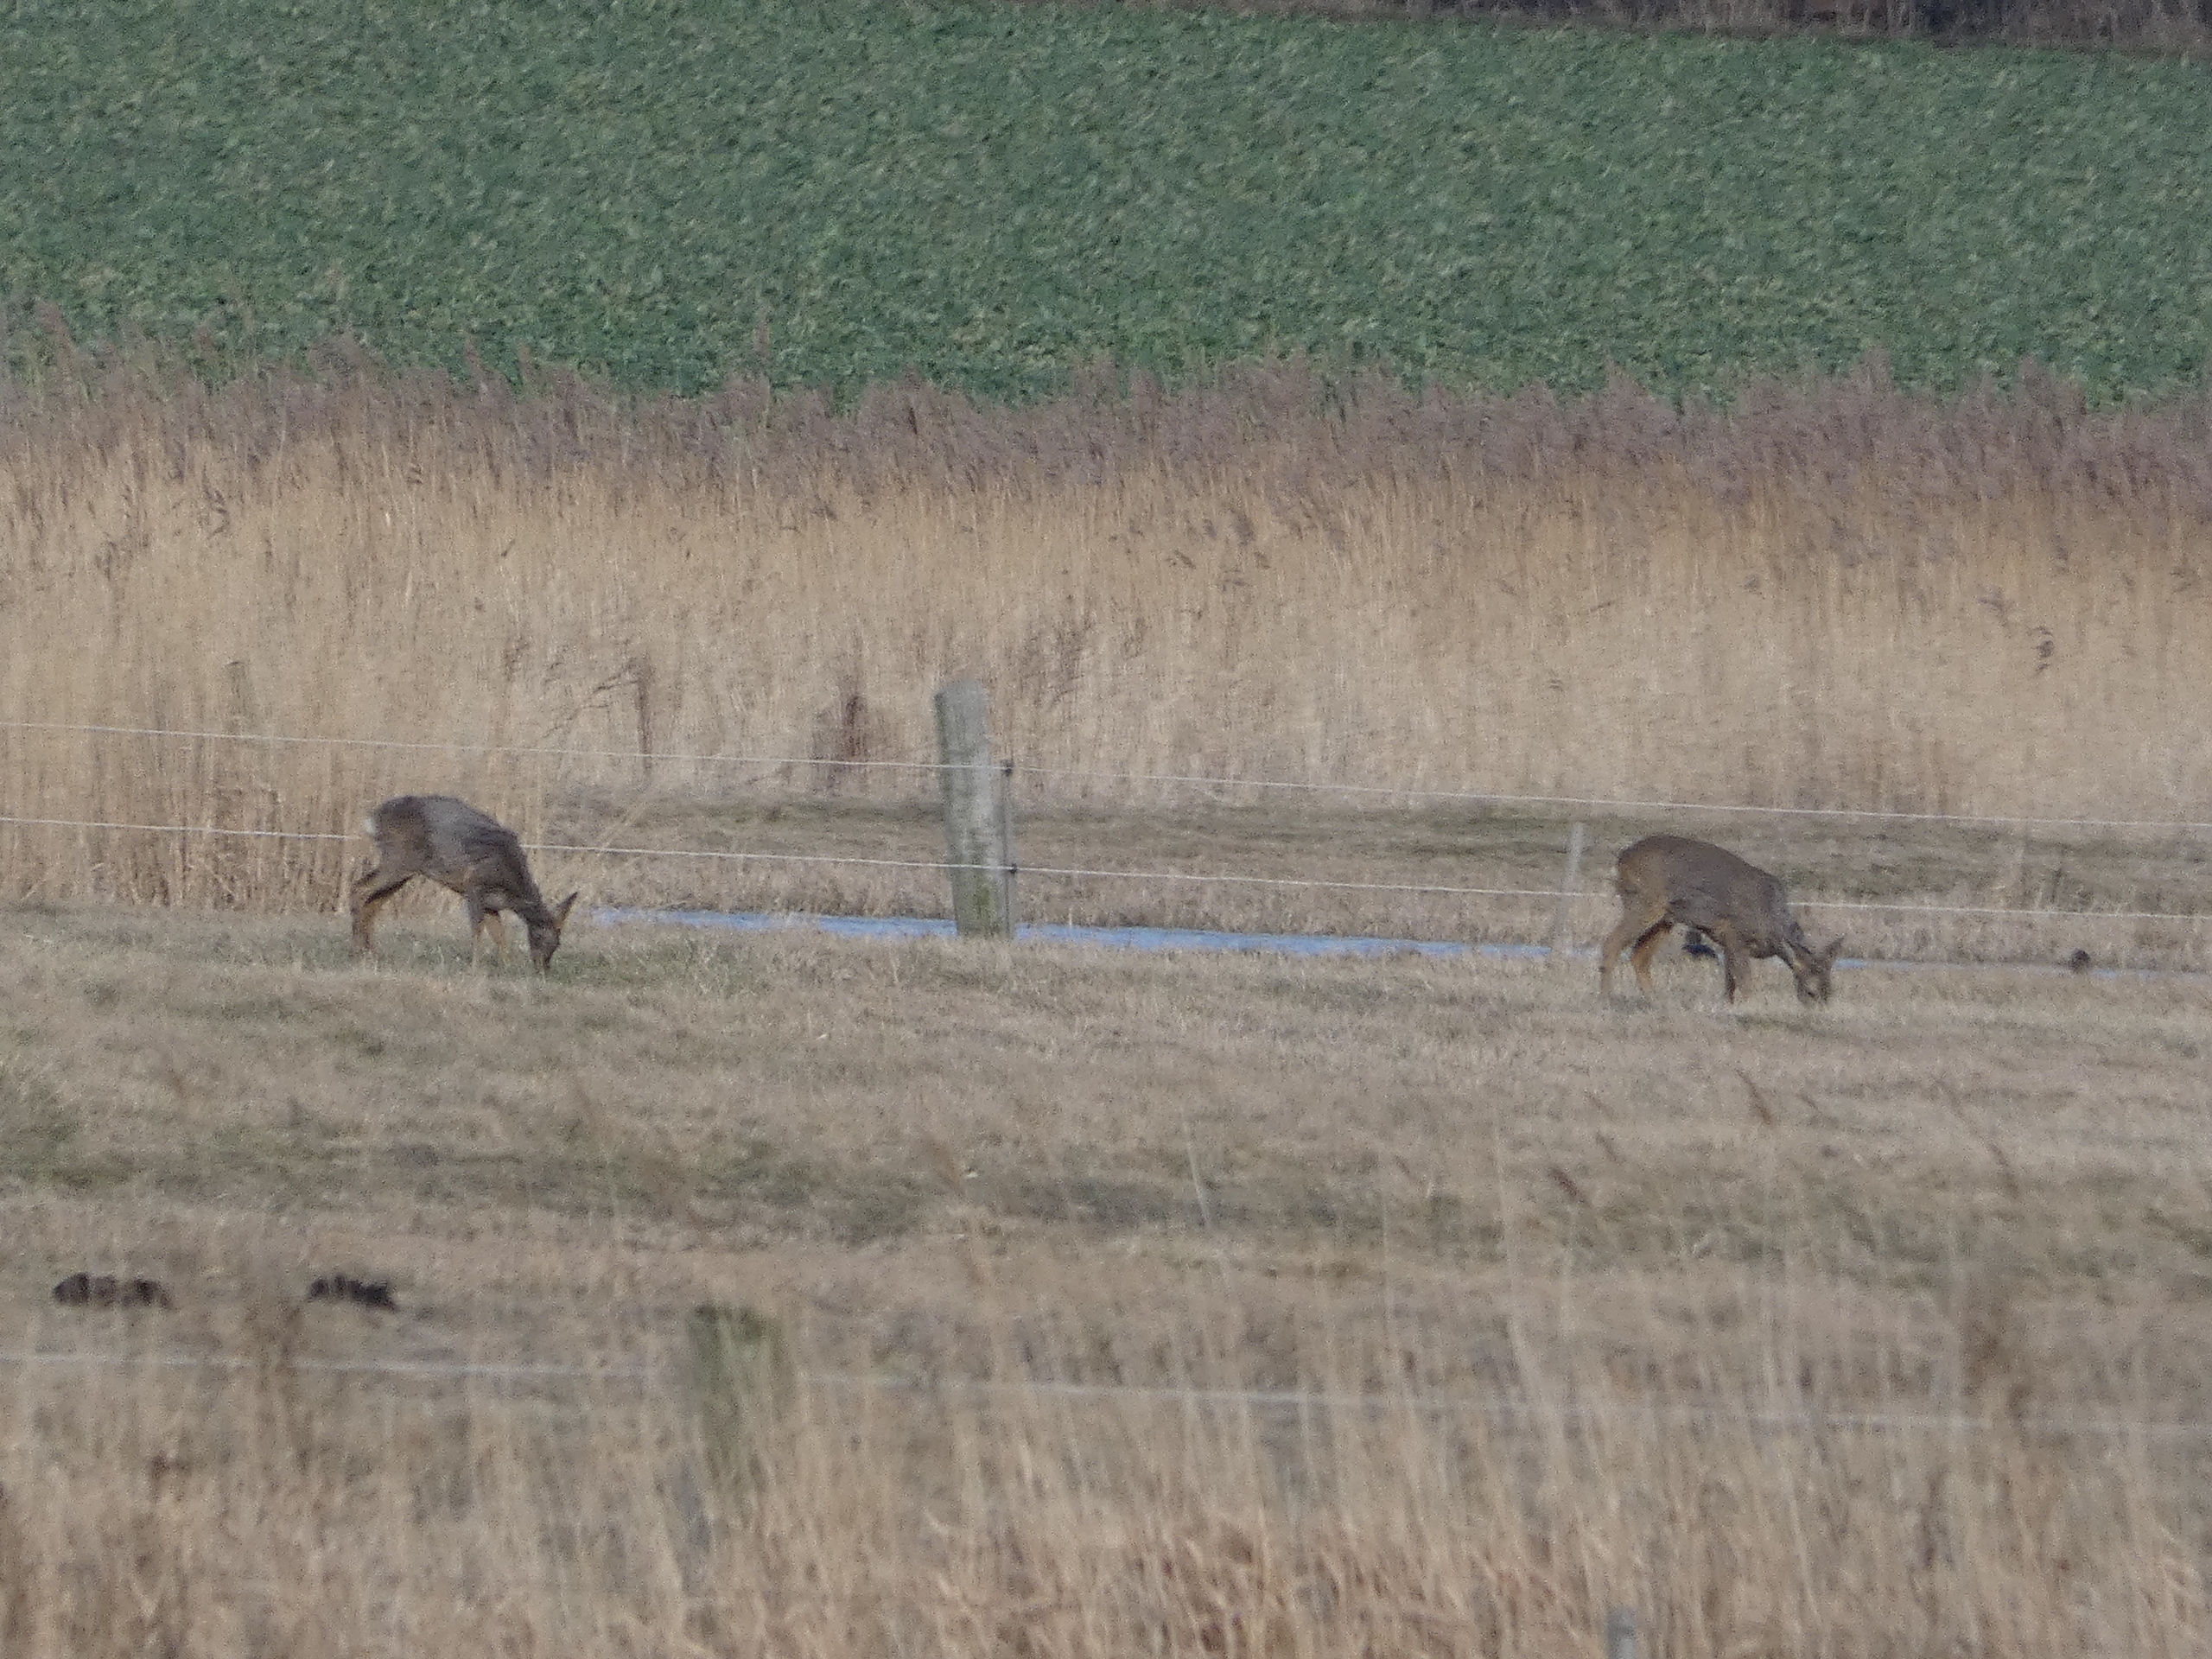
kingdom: Animalia
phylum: Chordata
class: Mammalia
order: Artiodactyla
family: Cervidae
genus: Capreolus
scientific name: Capreolus capreolus
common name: Rådyr
